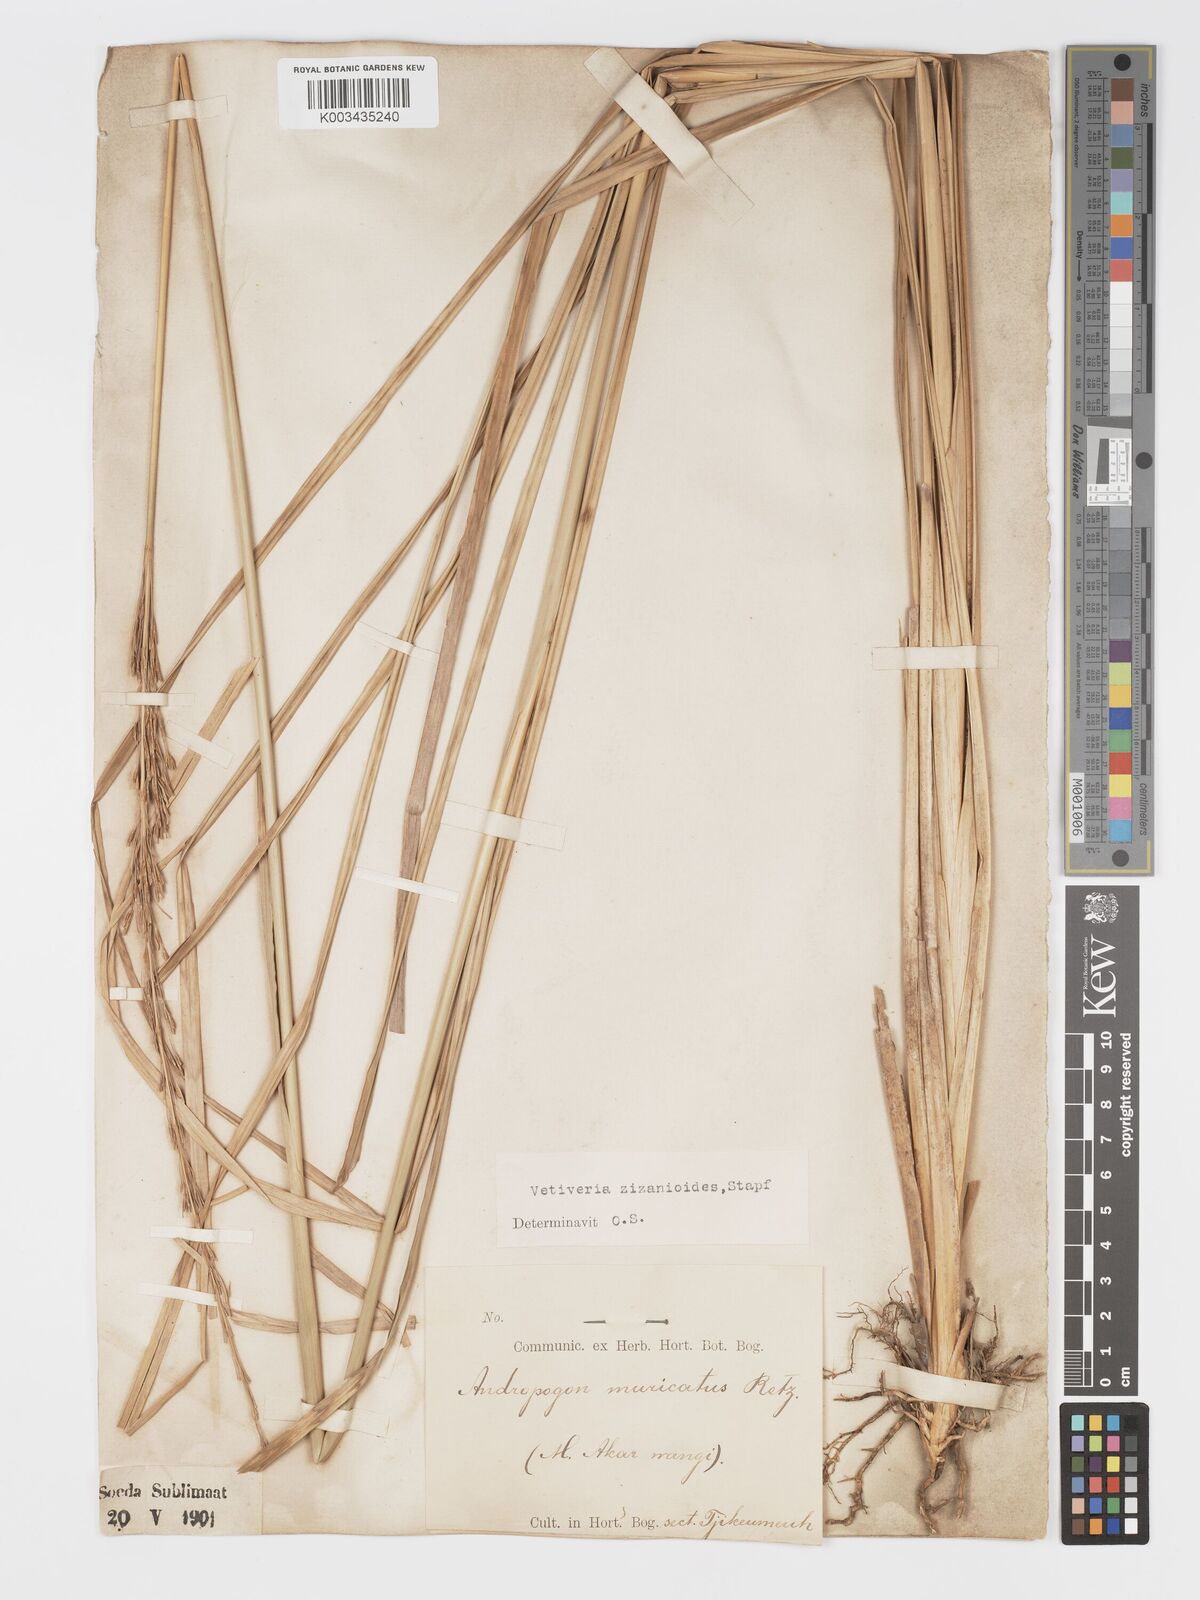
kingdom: Plantae
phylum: Tracheophyta
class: Liliopsida
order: Poales
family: Poaceae
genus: Chrysopogon
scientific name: Chrysopogon zizanioides
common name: False beardgrass
